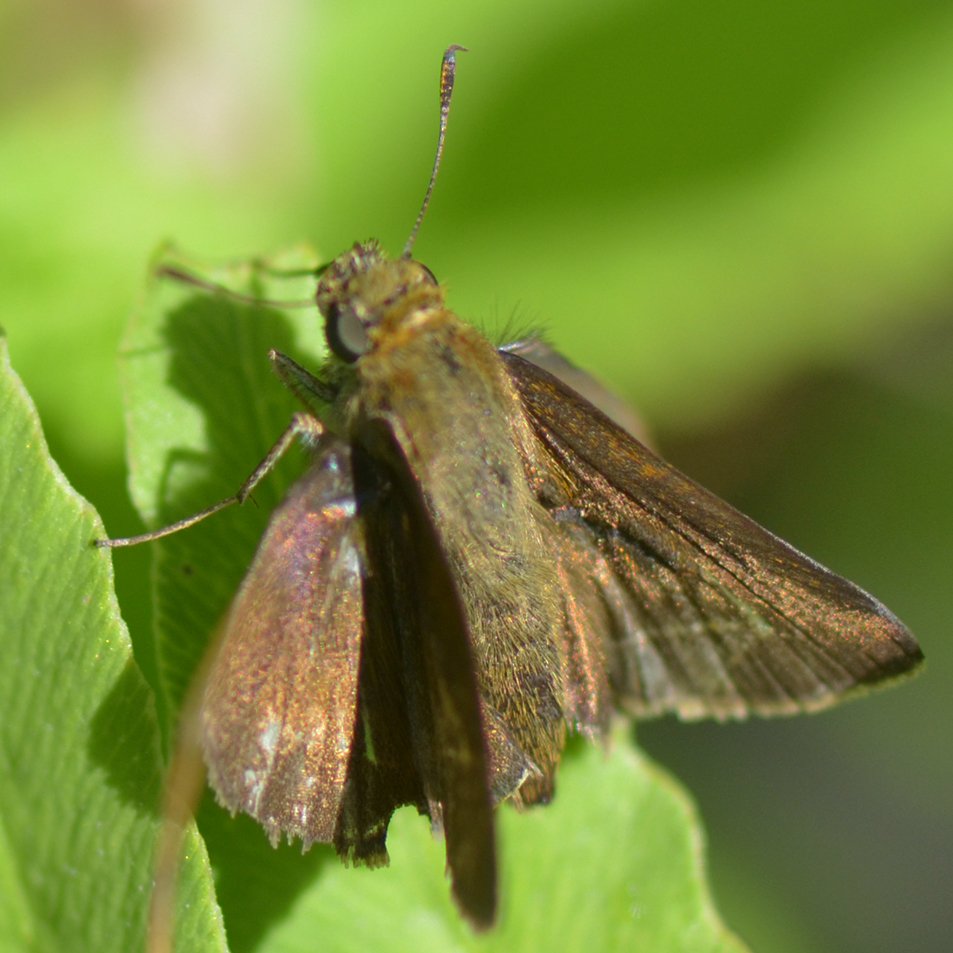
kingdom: Animalia
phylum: Arthropoda
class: Insecta
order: Lepidoptera
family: Hesperiidae
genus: Euphyes
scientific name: Euphyes vestris
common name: Dun Skipper
